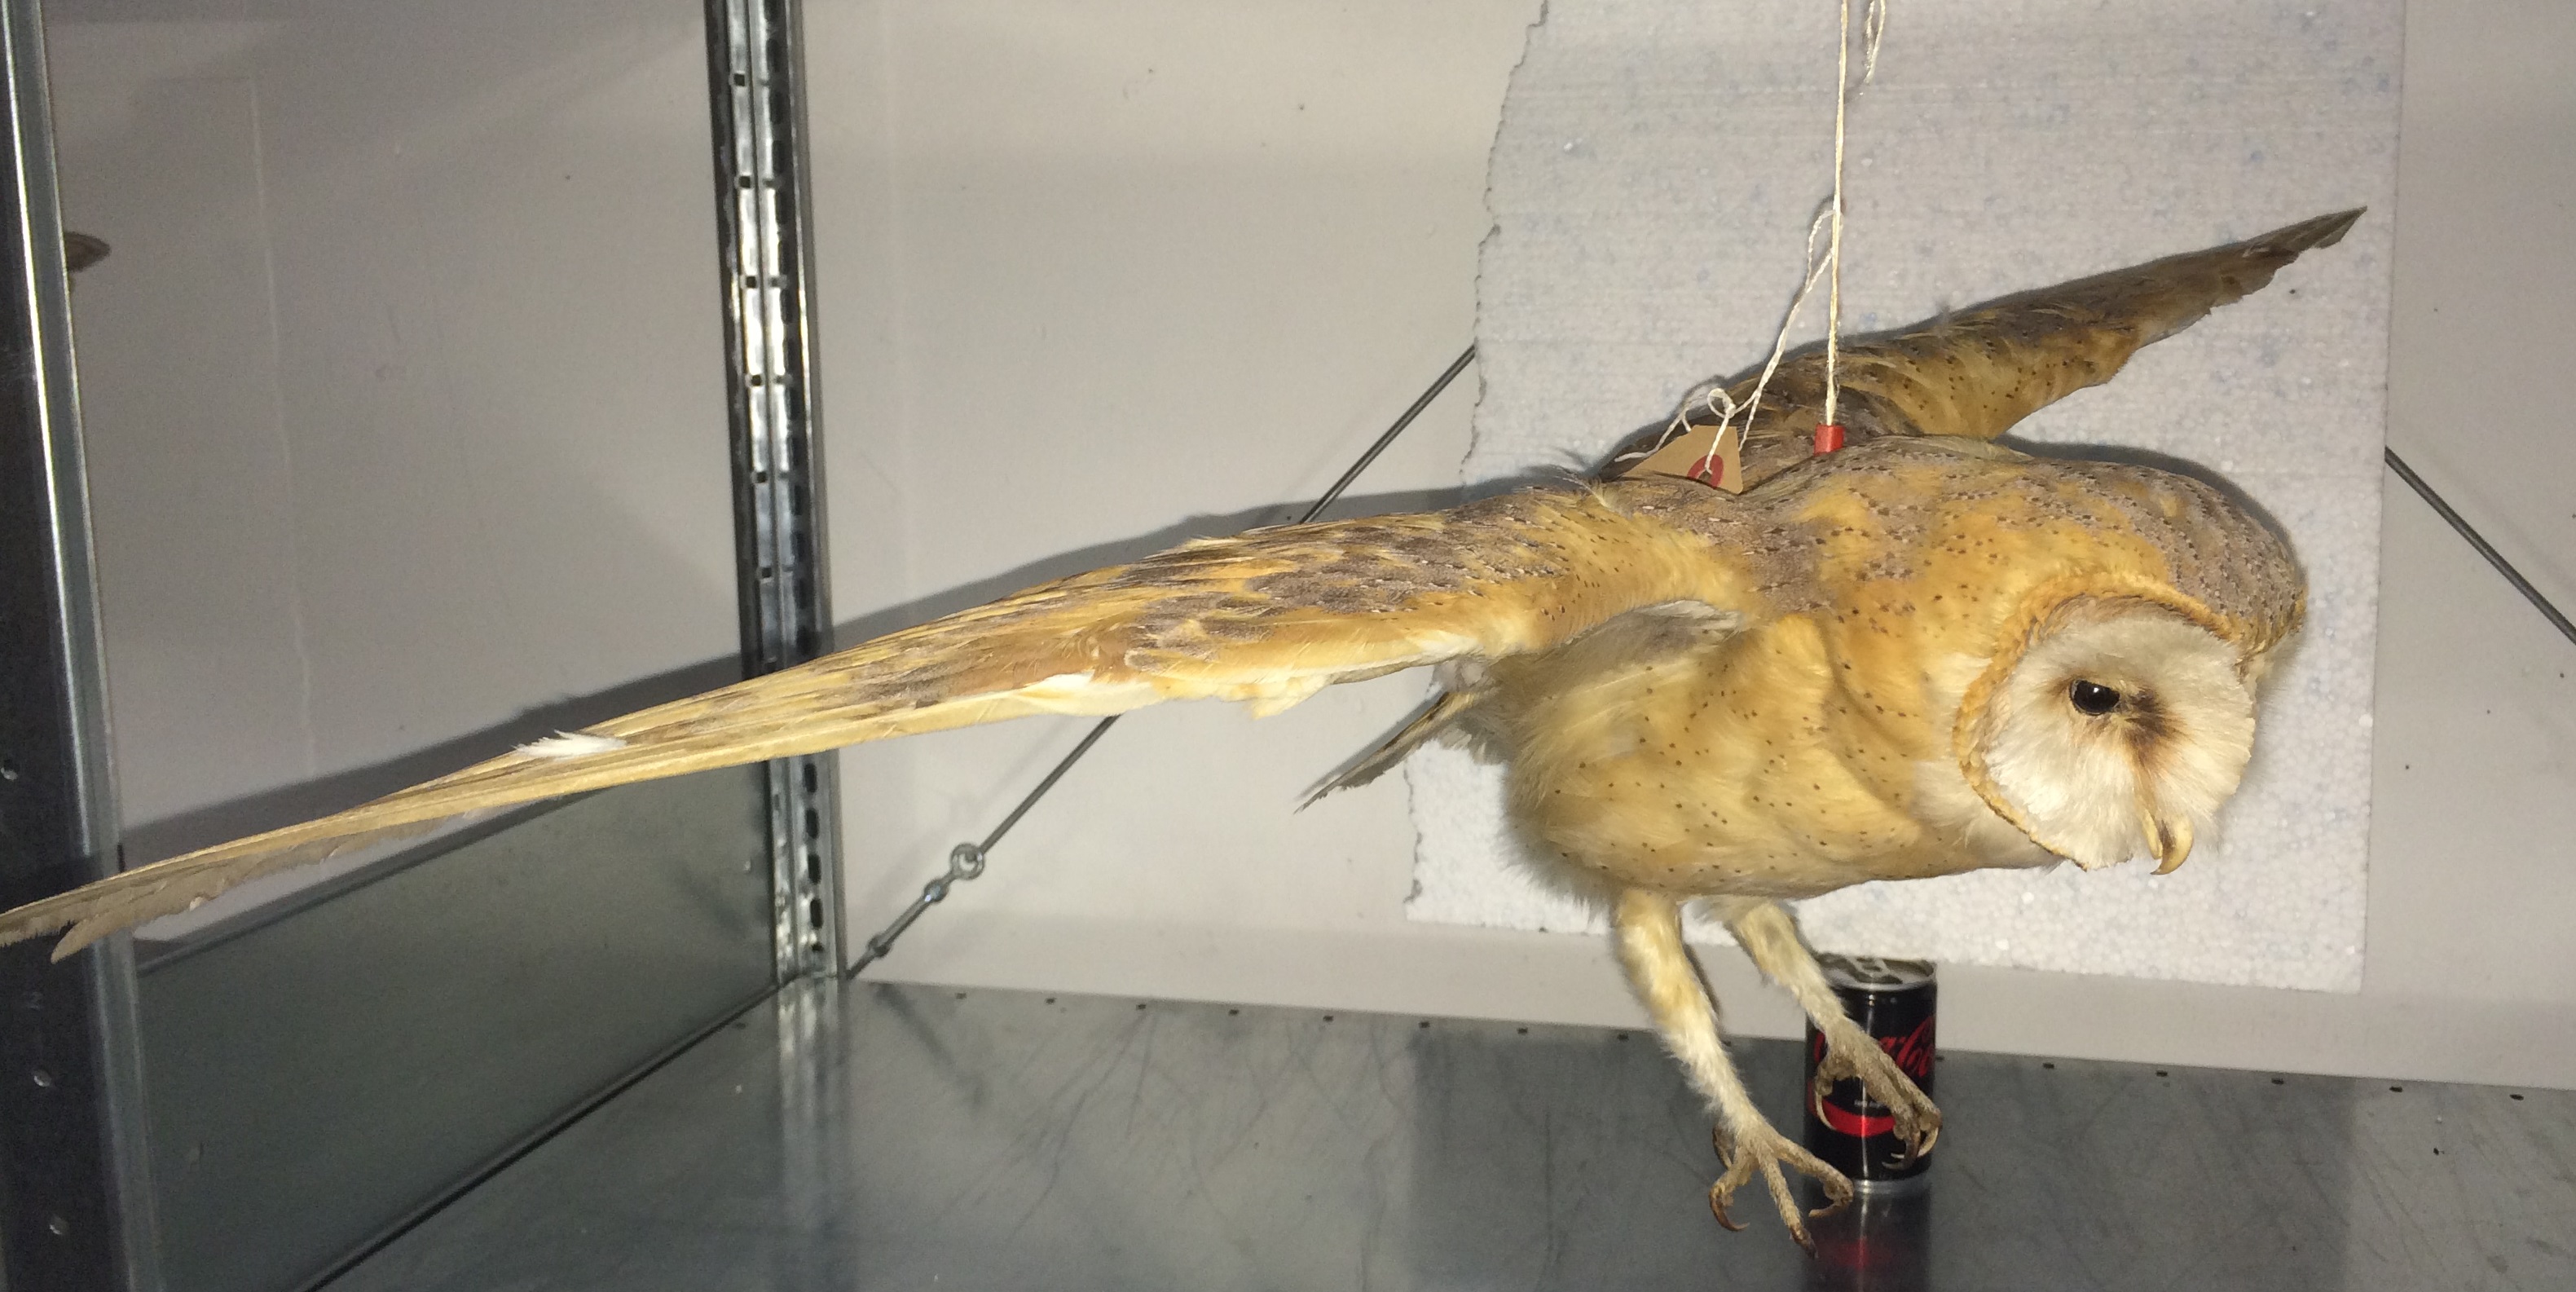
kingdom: Animalia
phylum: Chordata
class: Aves
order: Strigiformes
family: Tytonidae
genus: Tyto
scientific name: Tyto alba
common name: Barn owl
